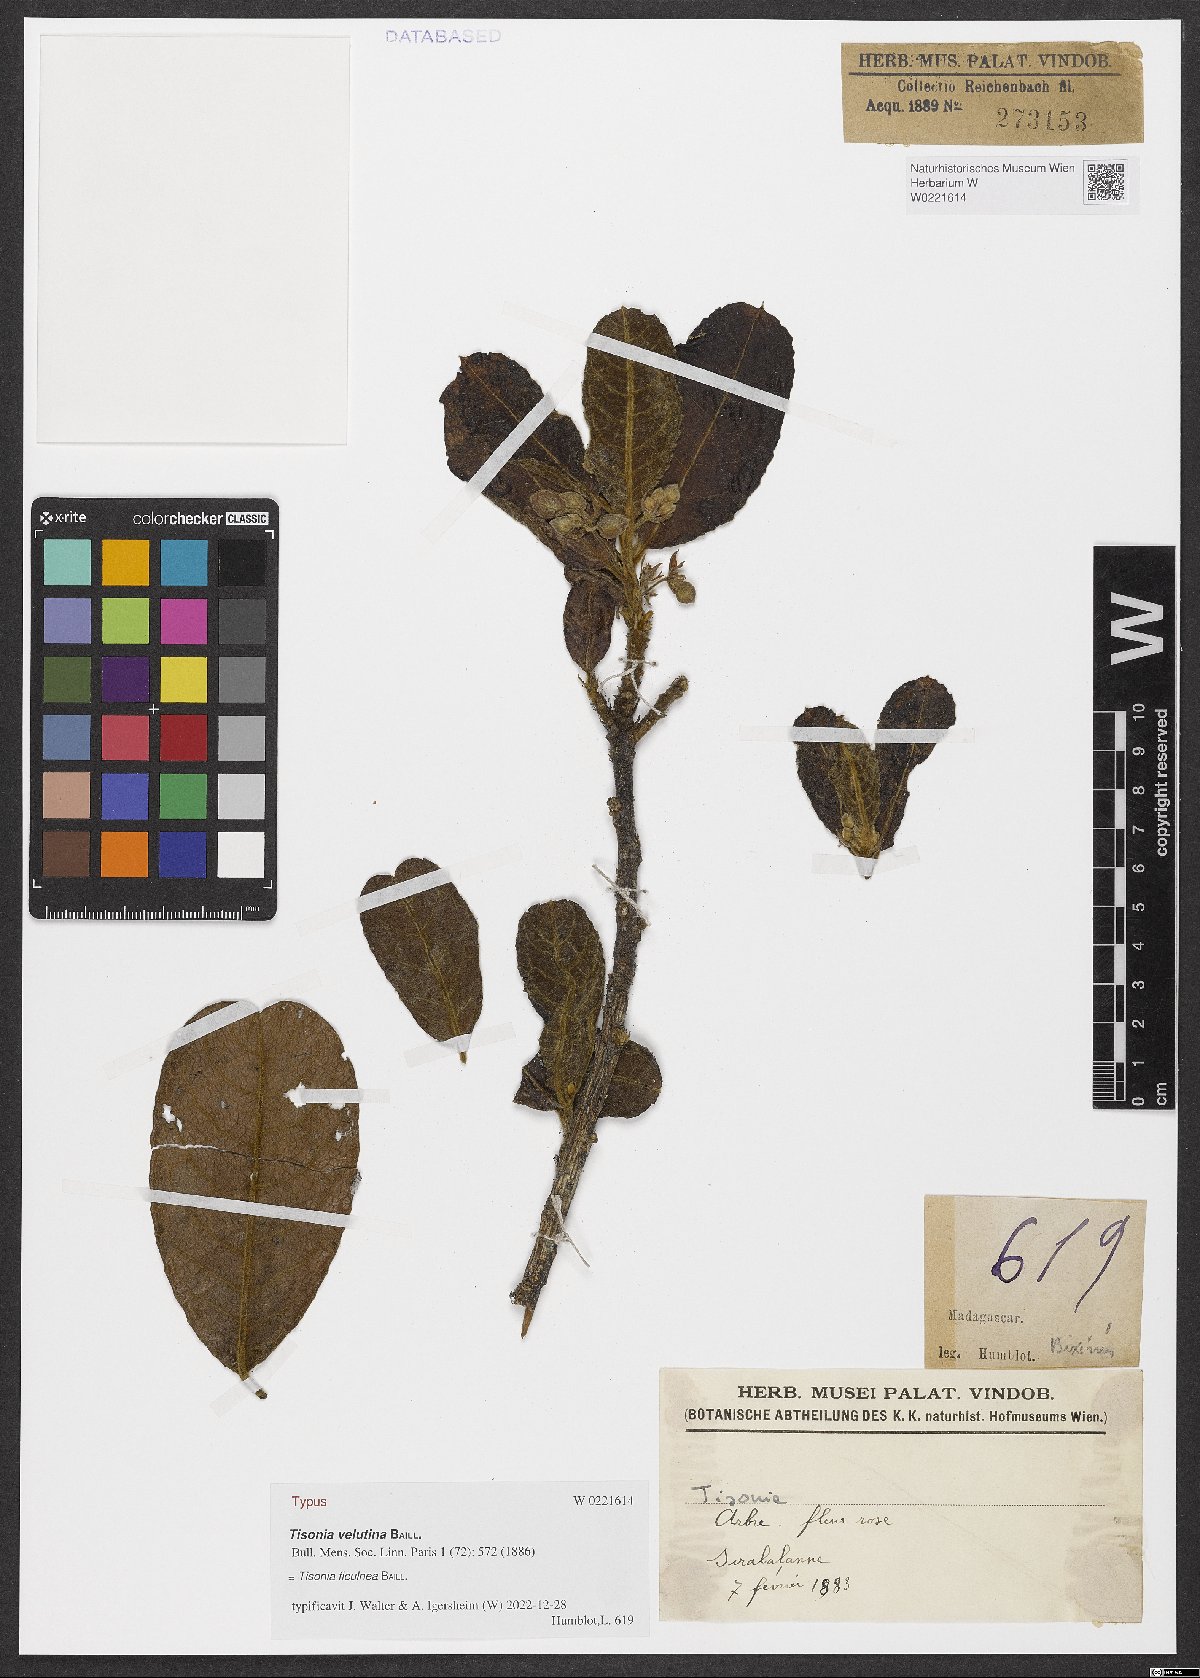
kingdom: Plantae
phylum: Tracheophyta
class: Magnoliopsida
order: Malpighiales
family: Salicaceae
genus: Tisonia
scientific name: Tisonia ficulnea
